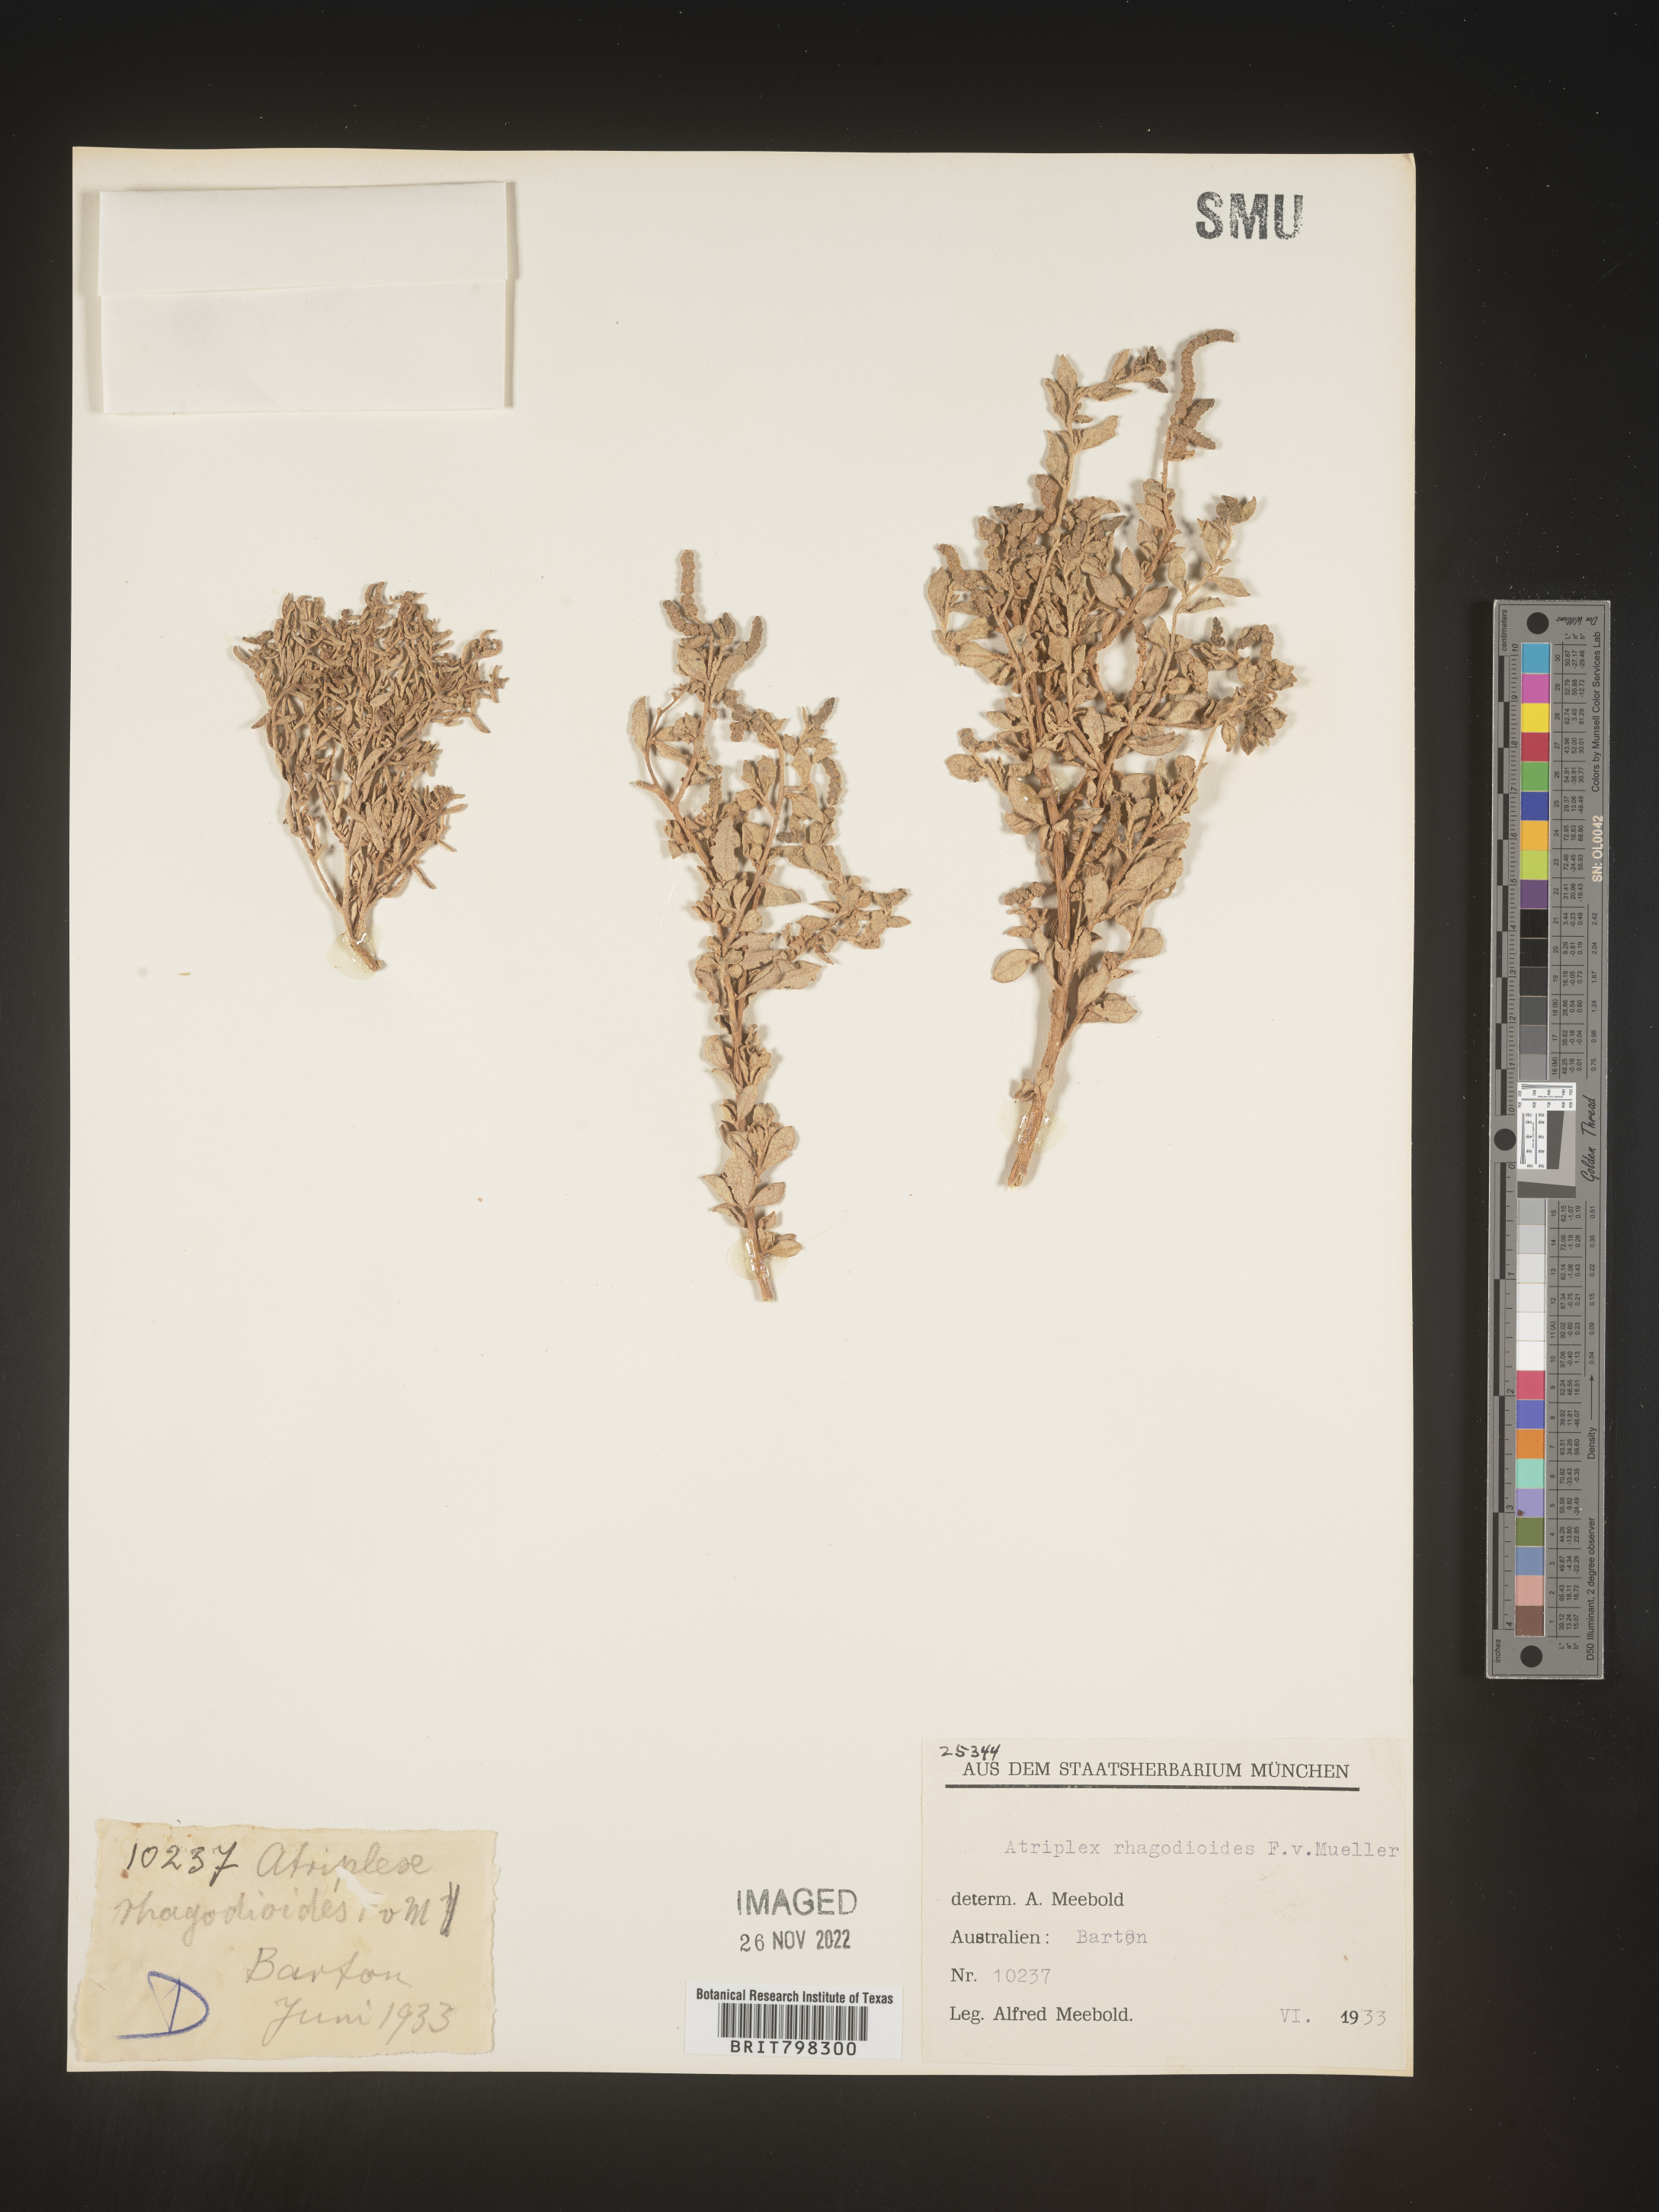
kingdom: Plantae
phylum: Tracheophyta
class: Magnoliopsida
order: Caryophyllales
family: Amaranthaceae
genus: Atriplex
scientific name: Atriplex
